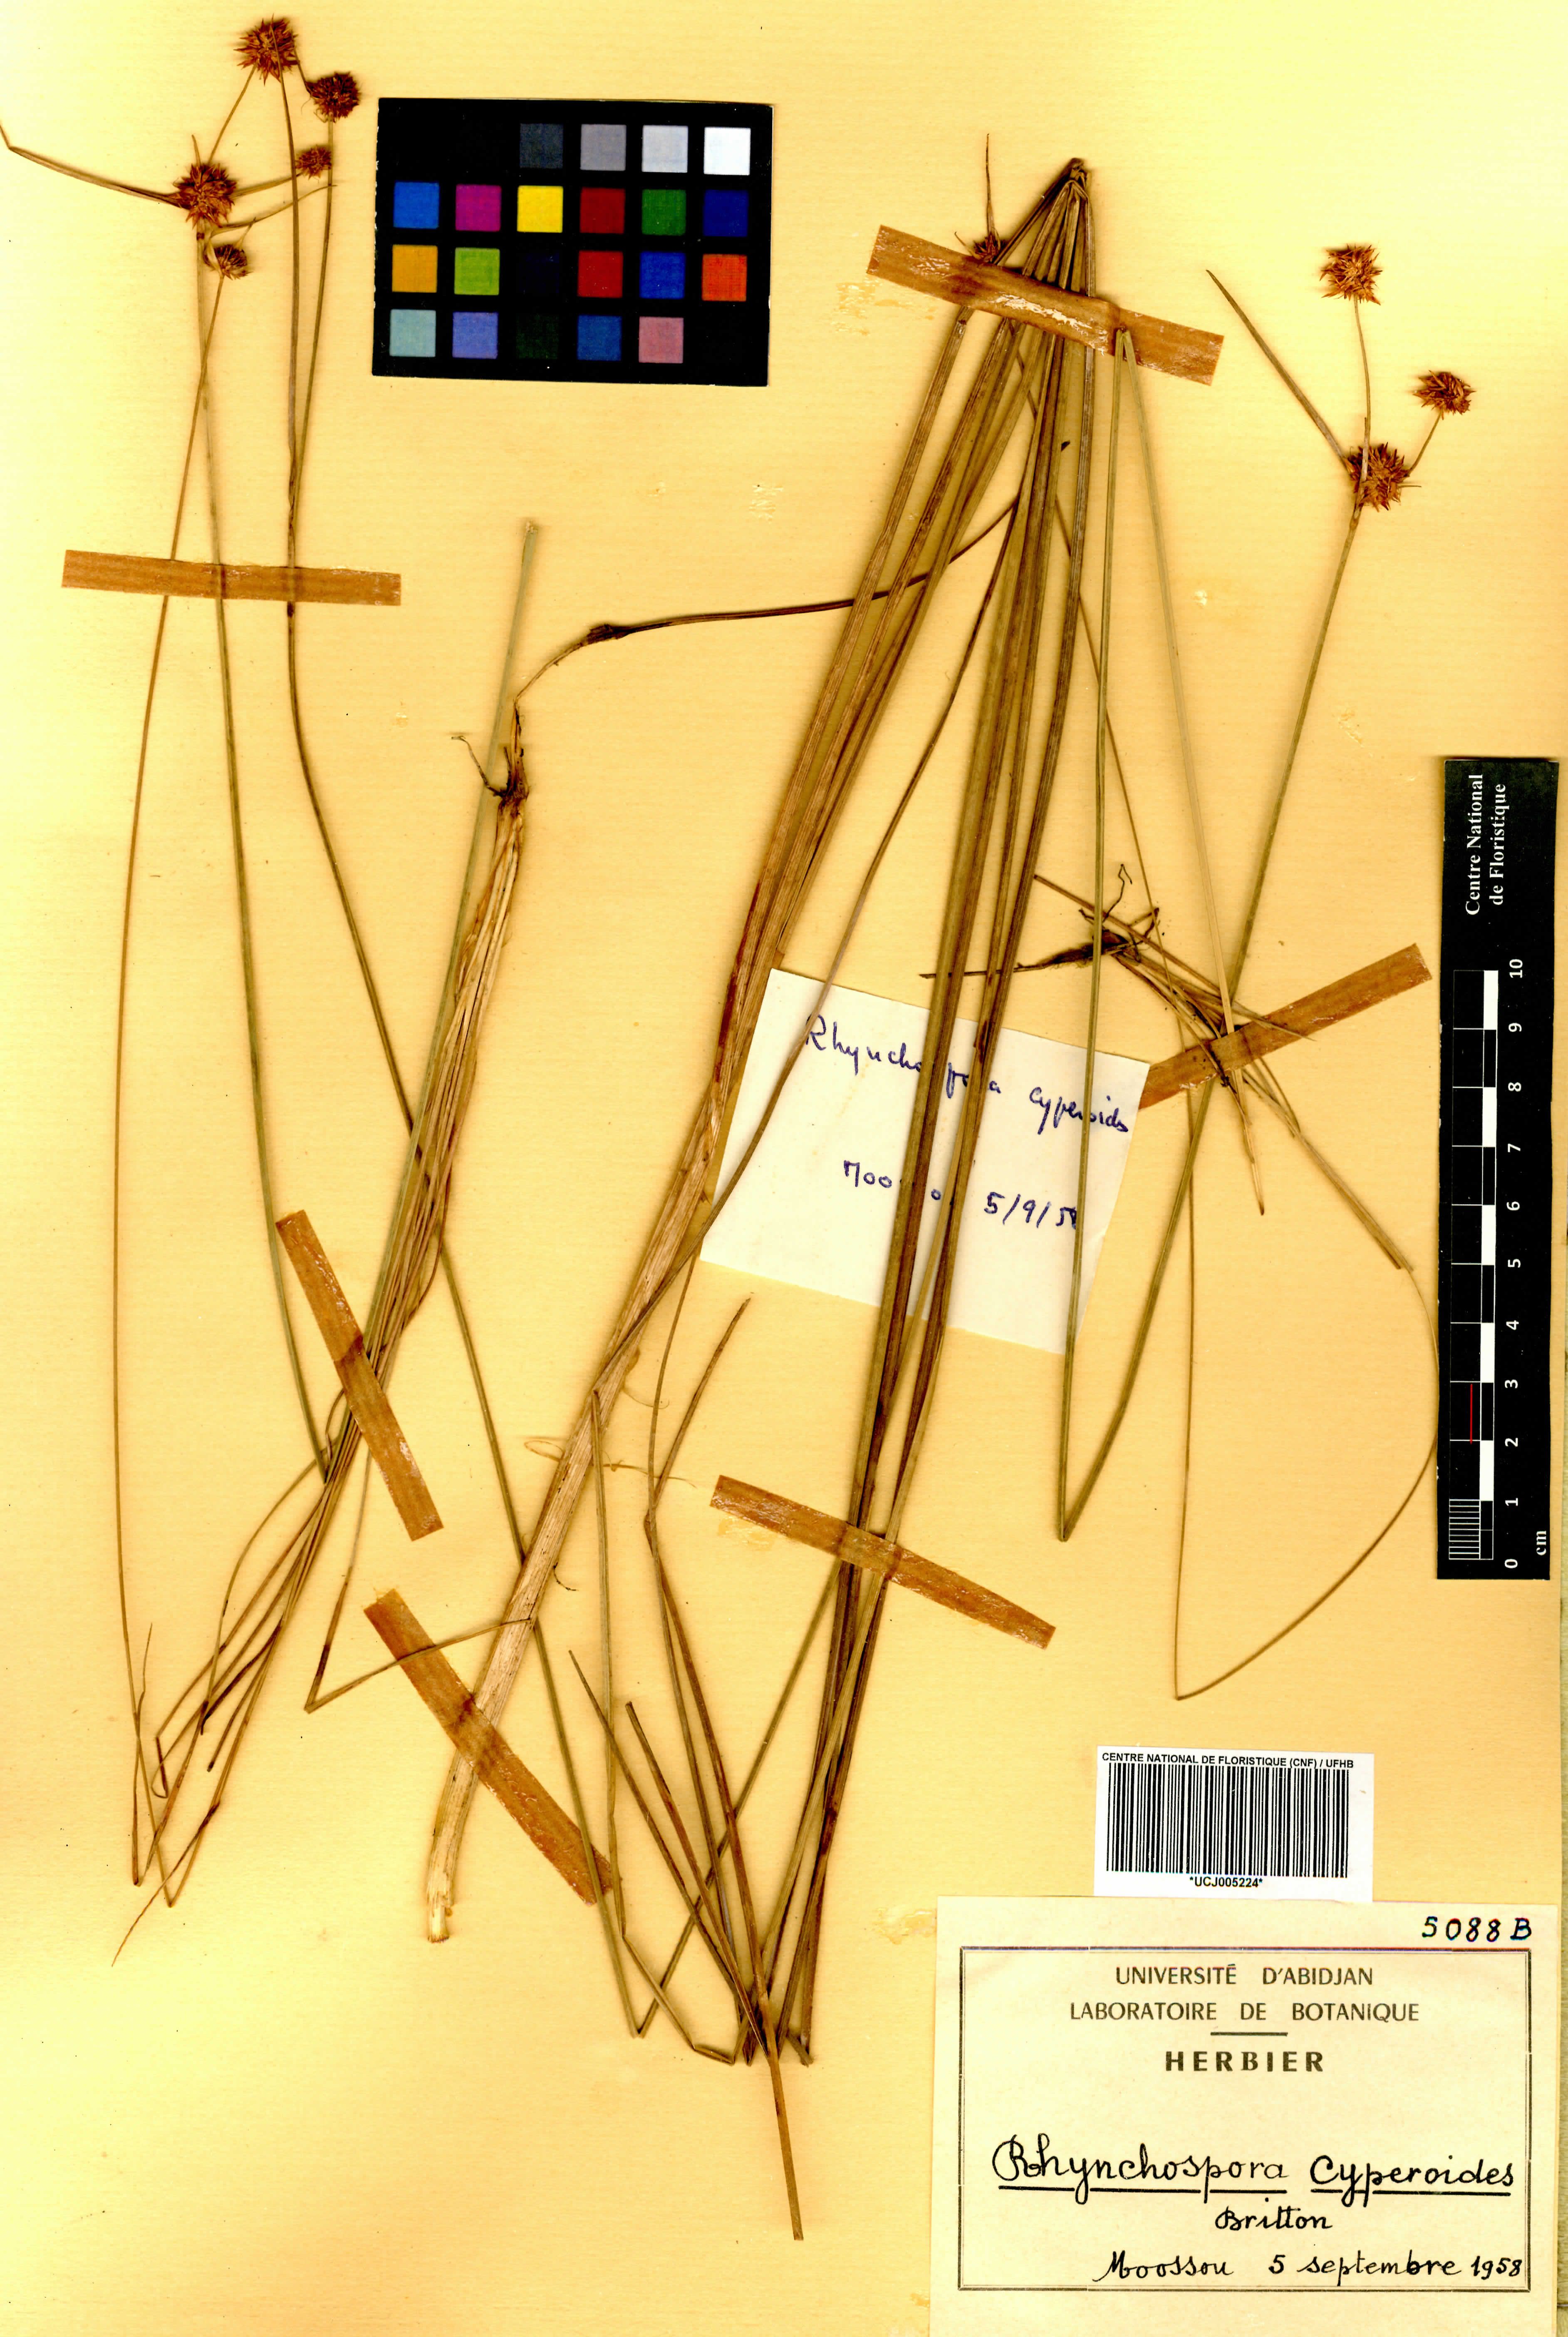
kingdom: Plantae
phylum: Tracheophyta
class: Liliopsida
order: Poales
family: Cyperaceae
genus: Rhynchospora
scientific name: Rhynchospora holoschoenoides
